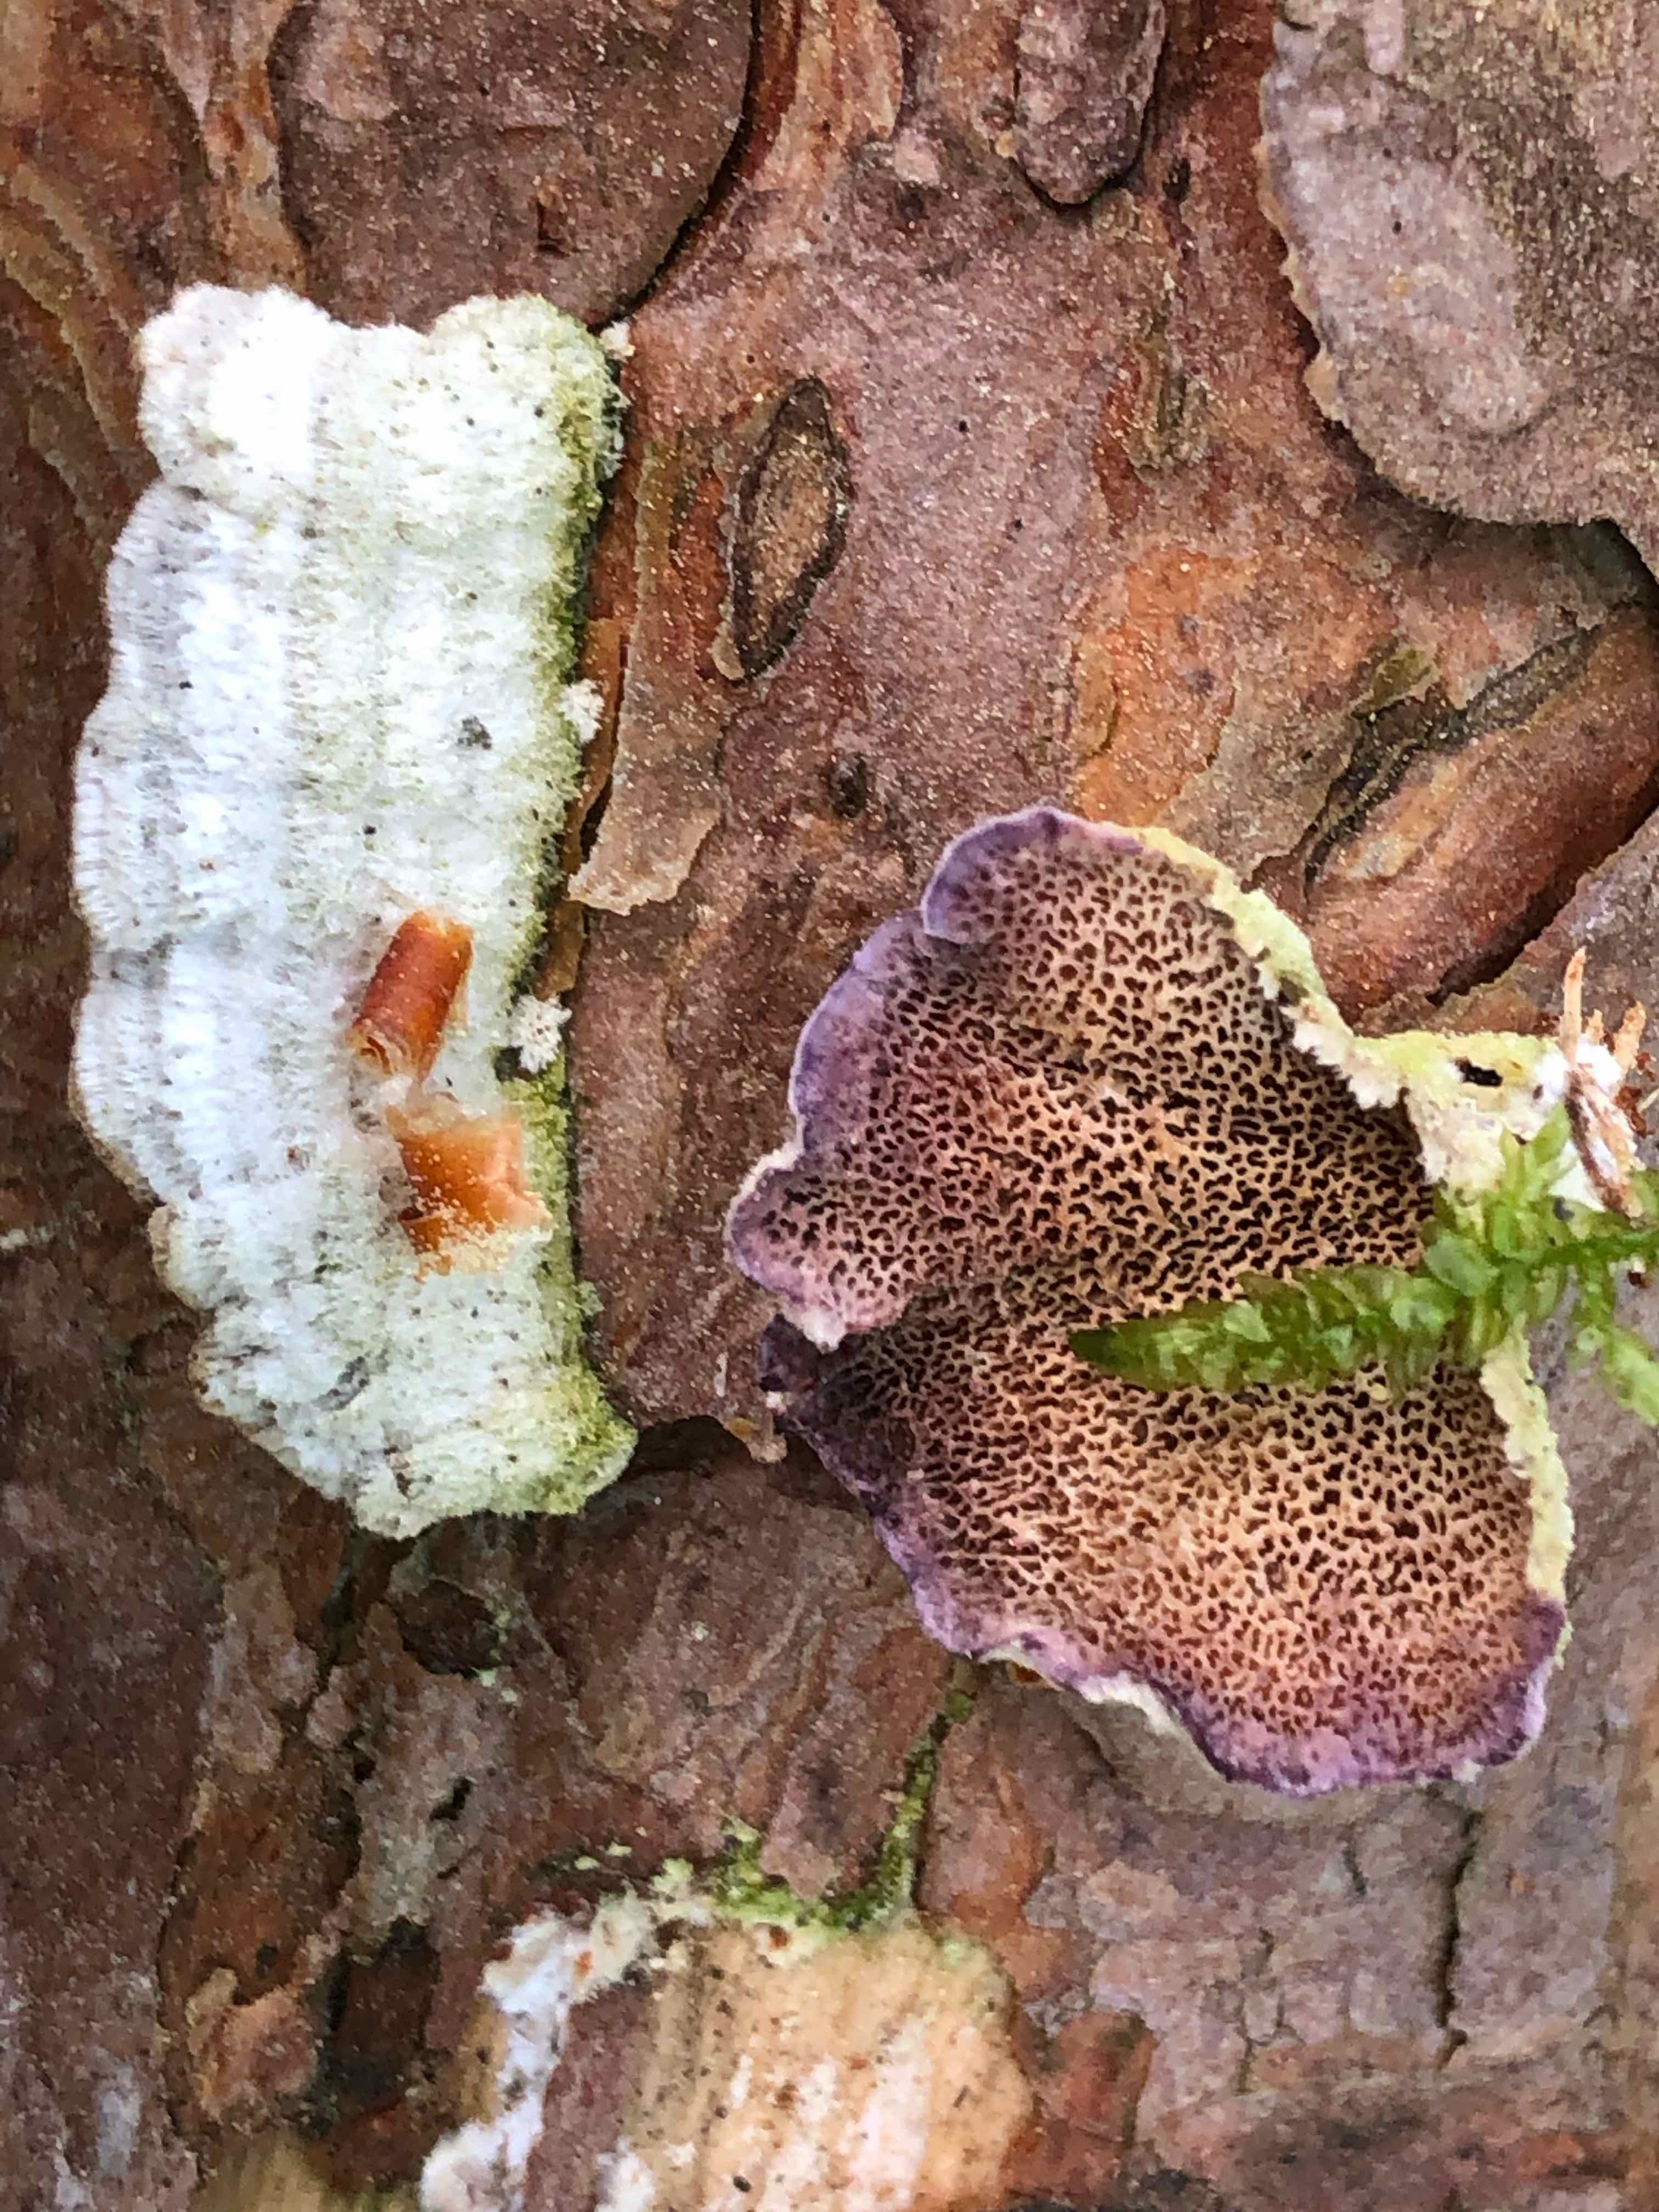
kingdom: Fungi
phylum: Basidiomycota
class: Agaricomycetes
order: Hymenochaetales
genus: Trichaptum
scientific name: Trichaptum abietinum
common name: almindelig violporesvamp
